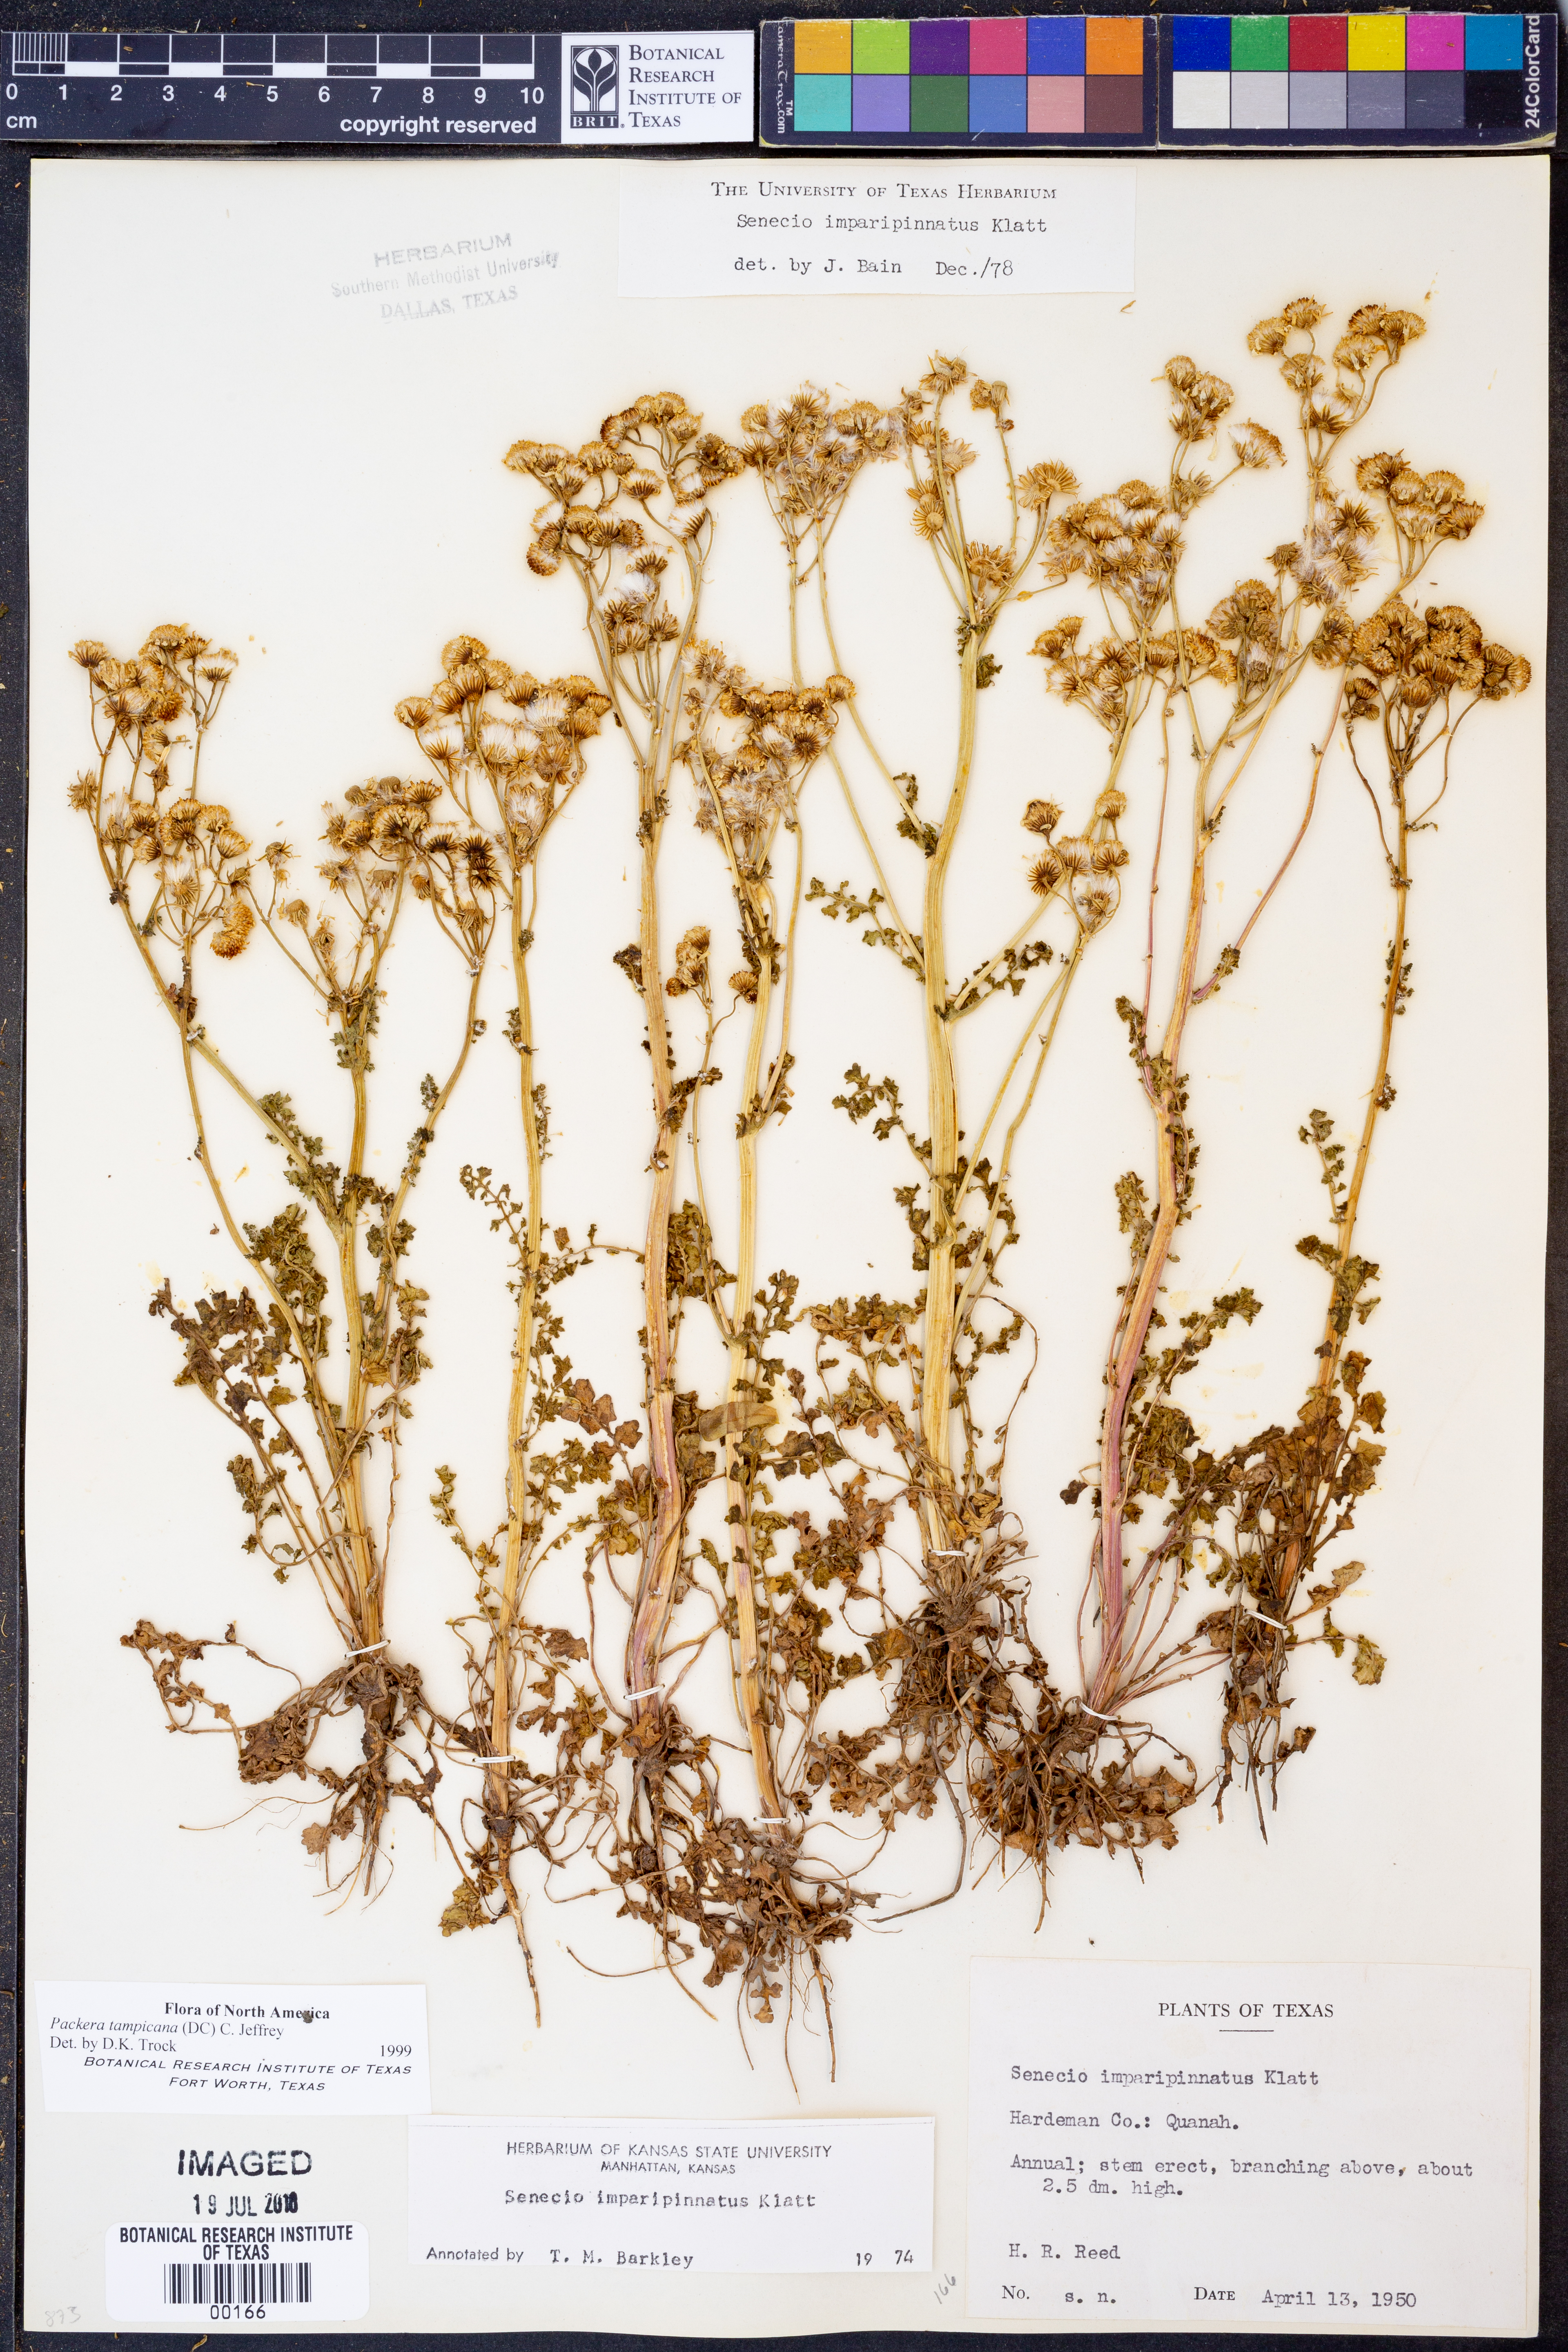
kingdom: Plantae
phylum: Tracheophyta
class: Magnoliopsida
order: Asterales
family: Asteraceae
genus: Packera
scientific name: Packera tampicana
